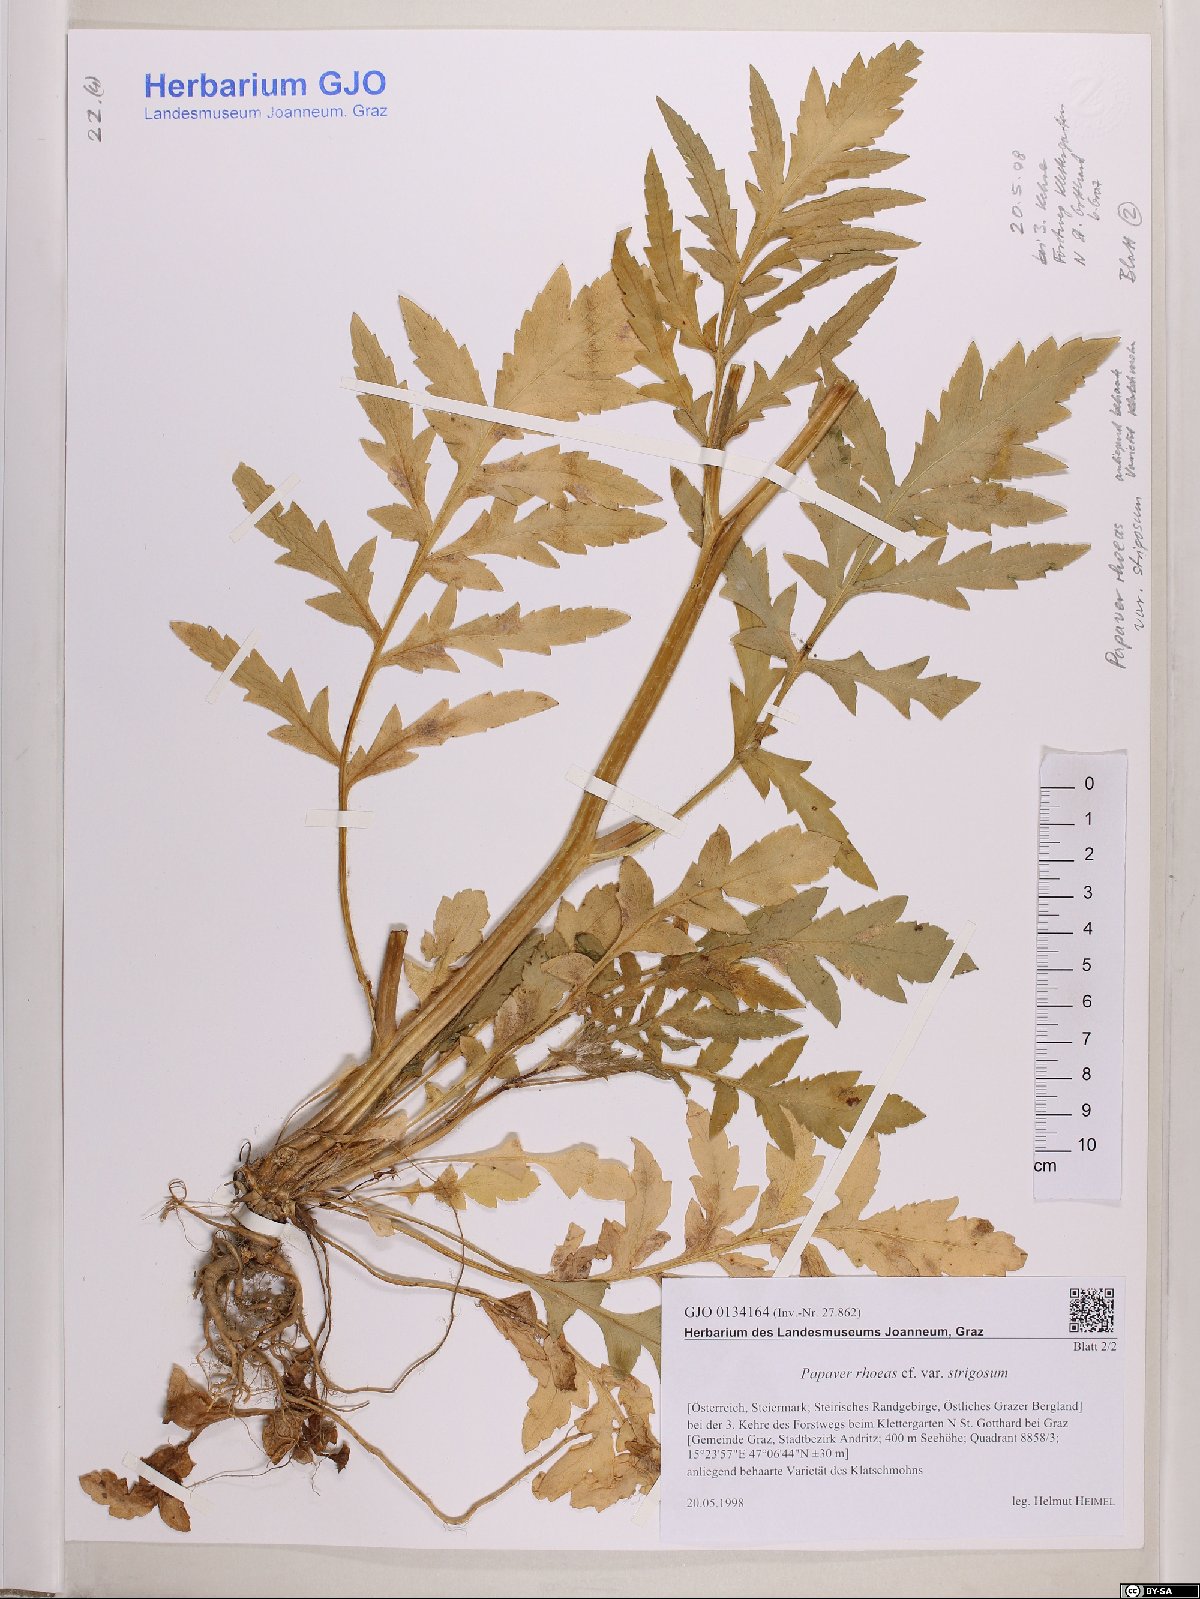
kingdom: Plantae
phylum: Tracheophyta
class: Magnoliopsida
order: Ranunculales
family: Papaveraceae
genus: Papaver
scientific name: Papaver rhoeas
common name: Corn poppy
